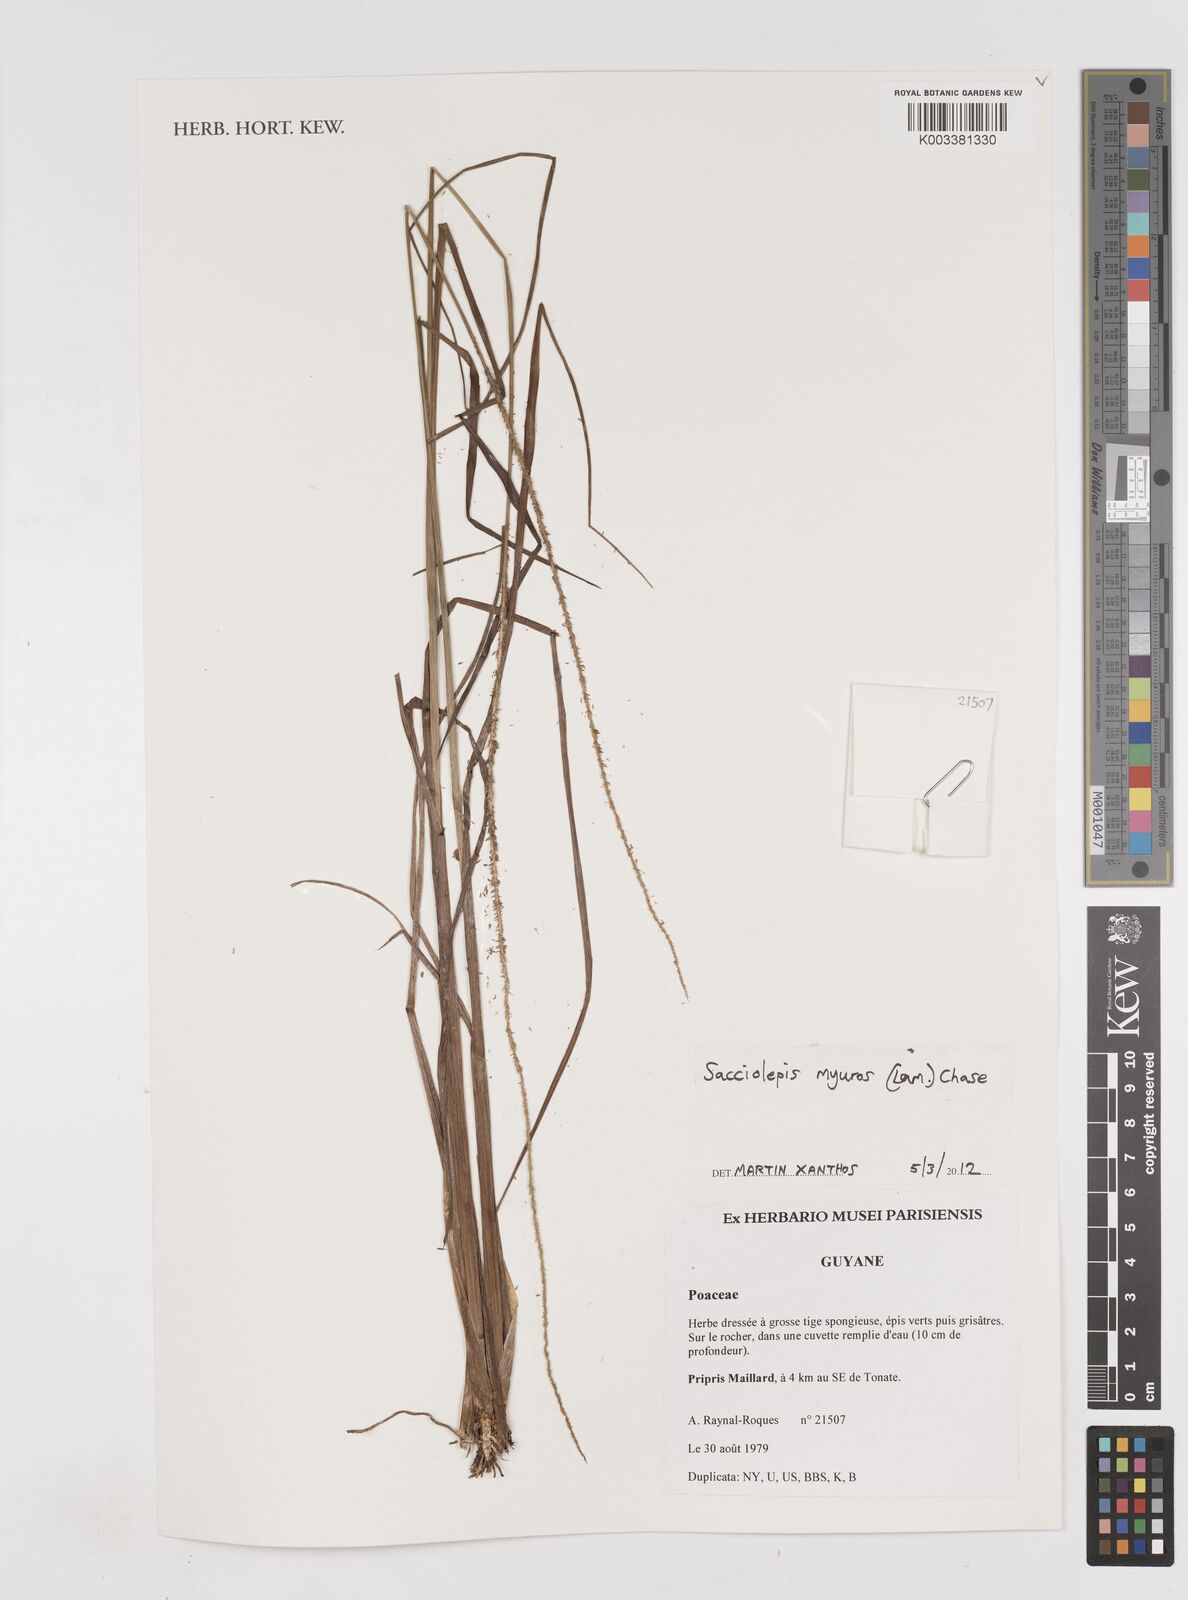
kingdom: Plantae
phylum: Tracheophyta
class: Liliopsida
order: Poales
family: Poaceae
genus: Sacciolepis
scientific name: Sacciolepis myuros
